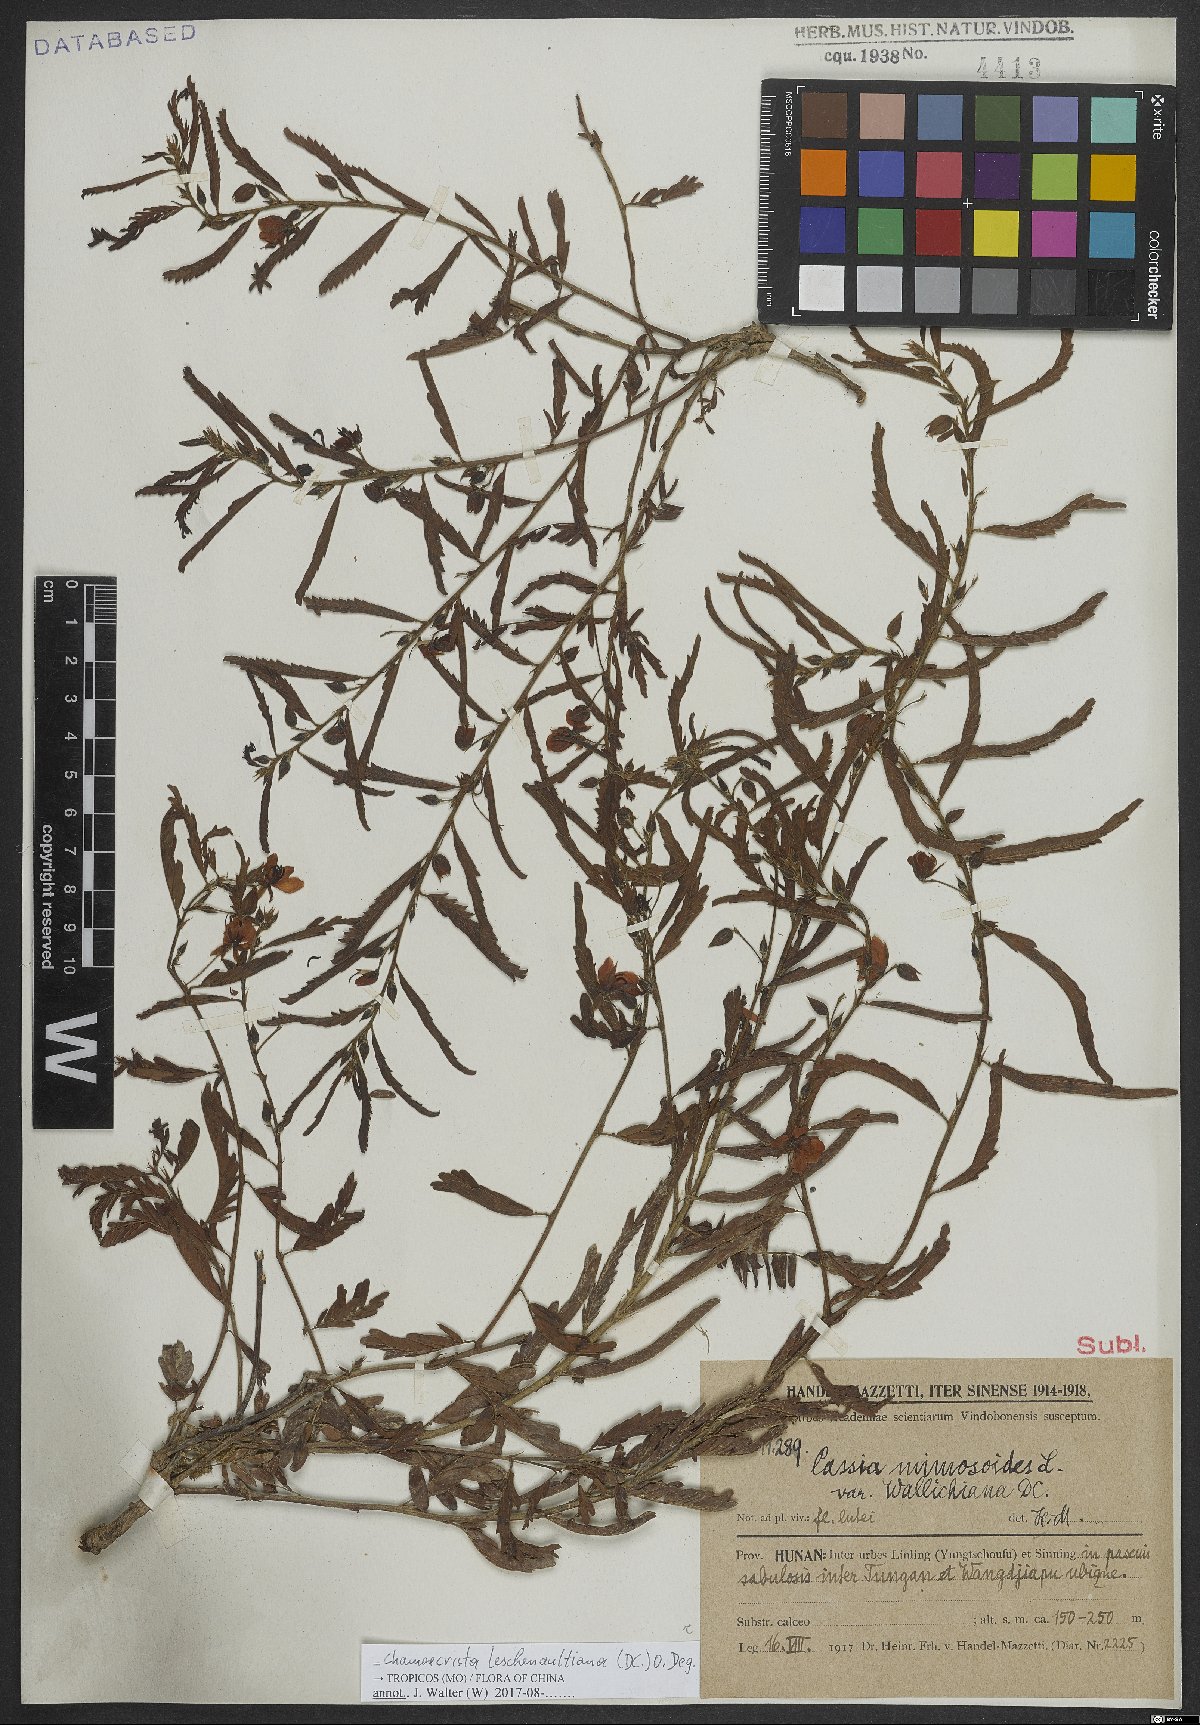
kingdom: Plantae
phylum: Tracheophyta
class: Magnoliopsida
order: Fabales
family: Fabaceae
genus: Chamaecrista
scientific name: Chamaecrista leschenaultiana
